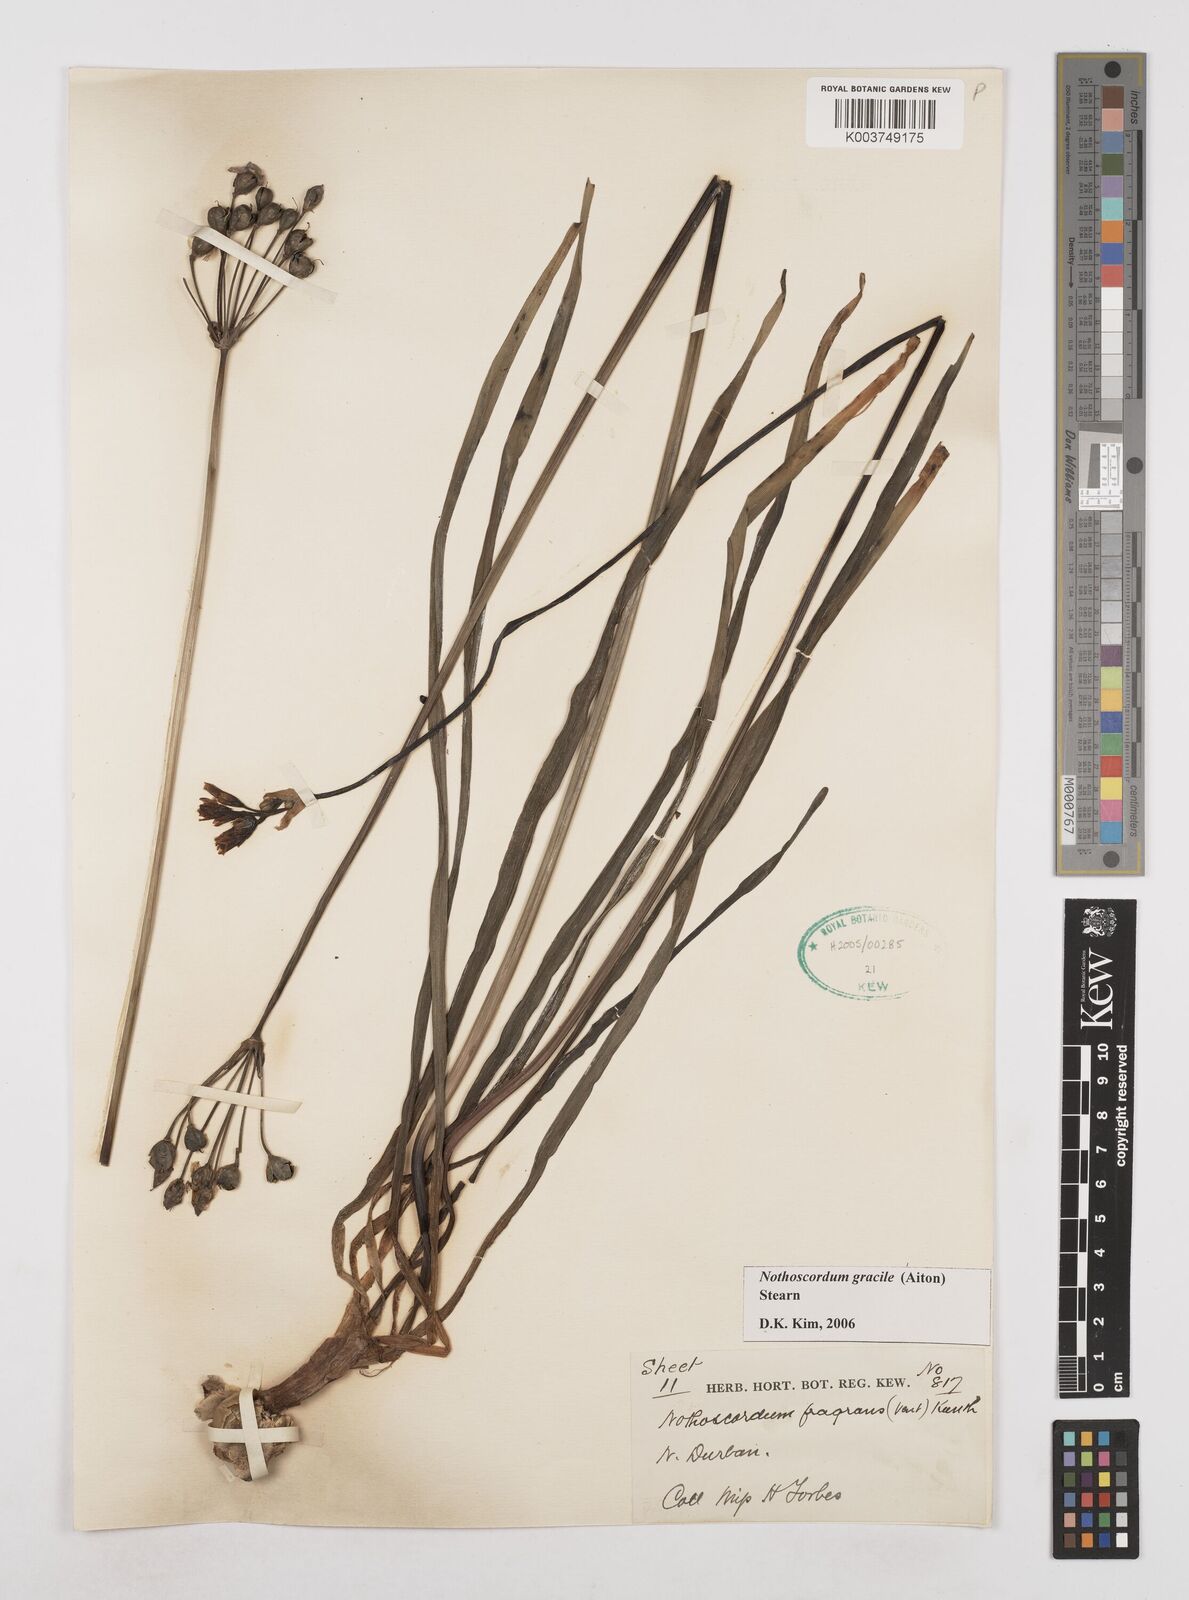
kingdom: Plantae
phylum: Tracheophyta
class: Liliopsida
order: Asparagales
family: Amaryllidaceae
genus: Nothoscordum
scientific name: Nothoscordum gracile
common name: Slender false garlic
